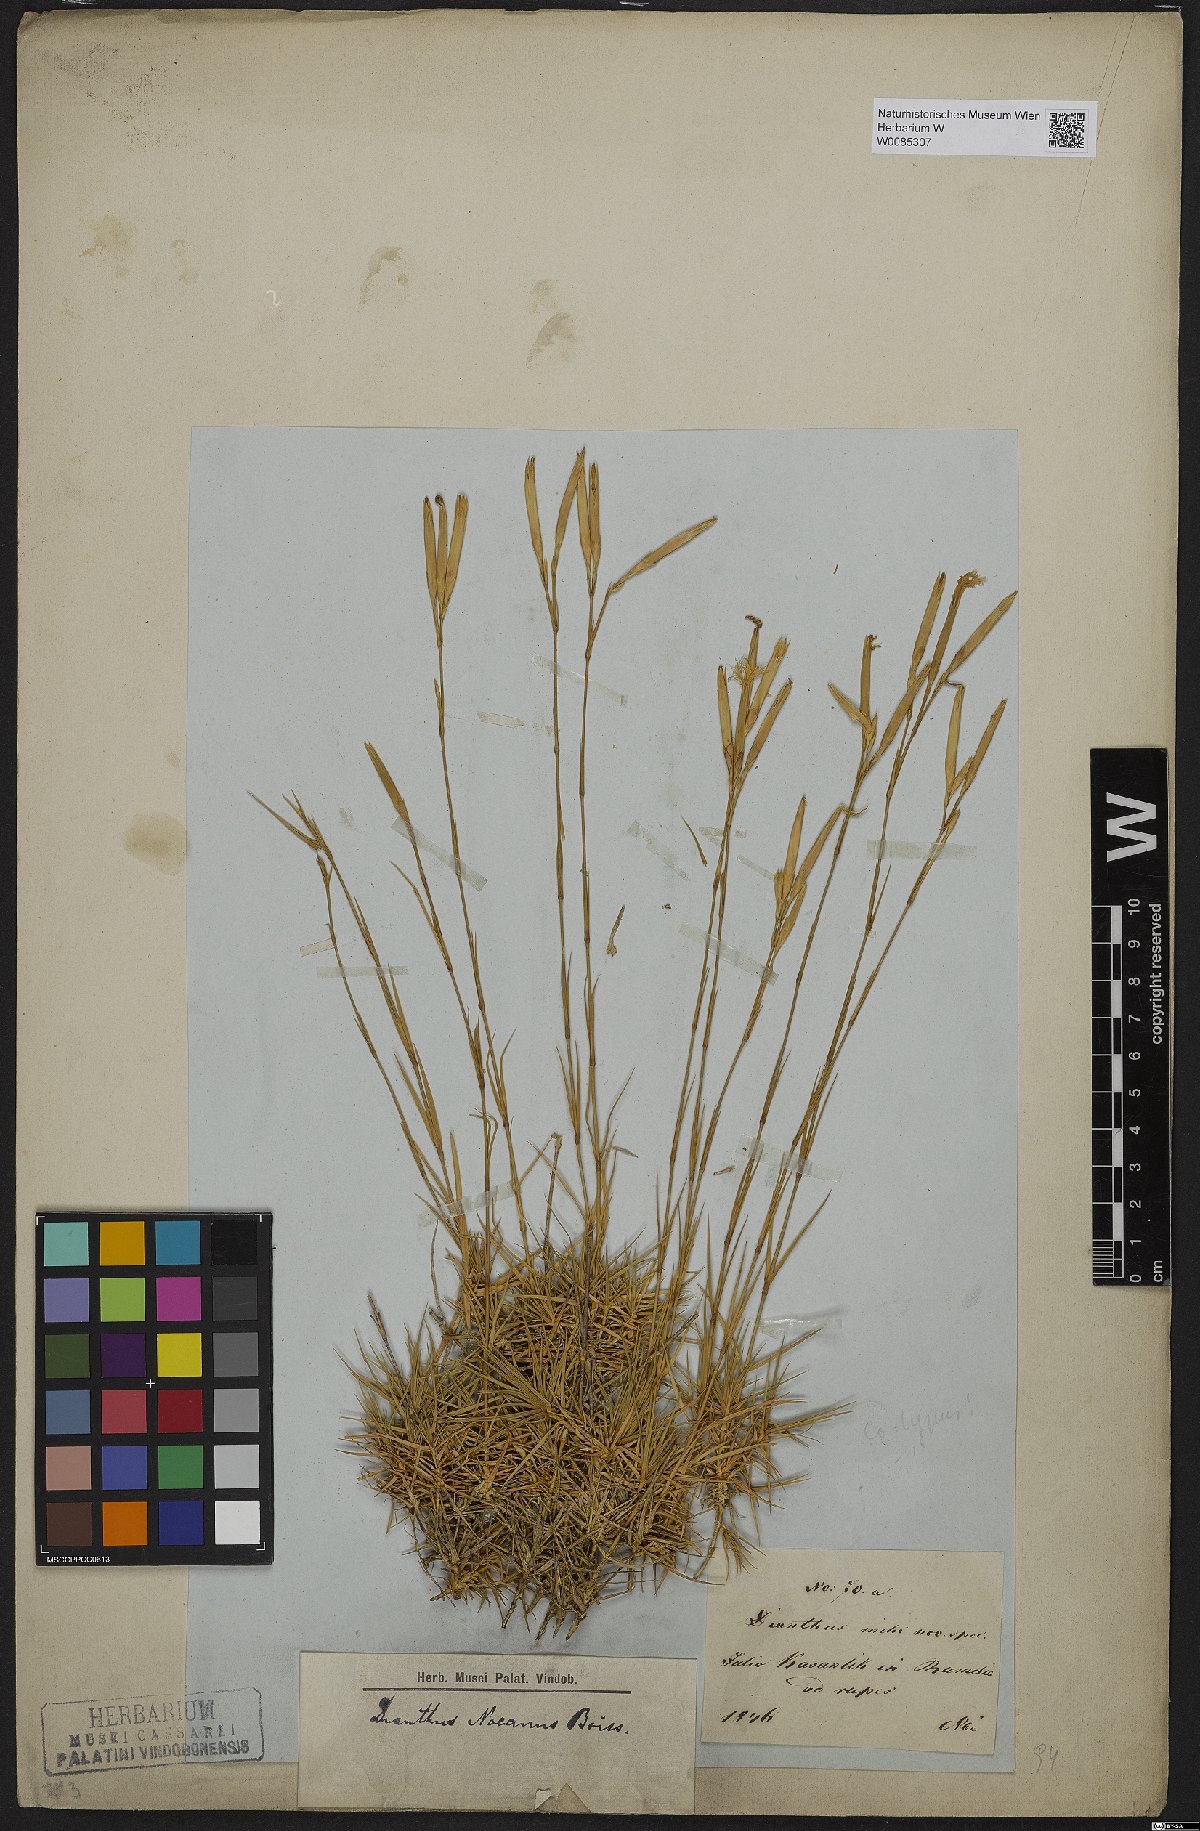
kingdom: Plantae
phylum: Tracheophyta
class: Magnoliopsida
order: Caryophyllales
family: Caryophyllaceae
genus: Dianthus
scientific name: Dianthus petraeus
